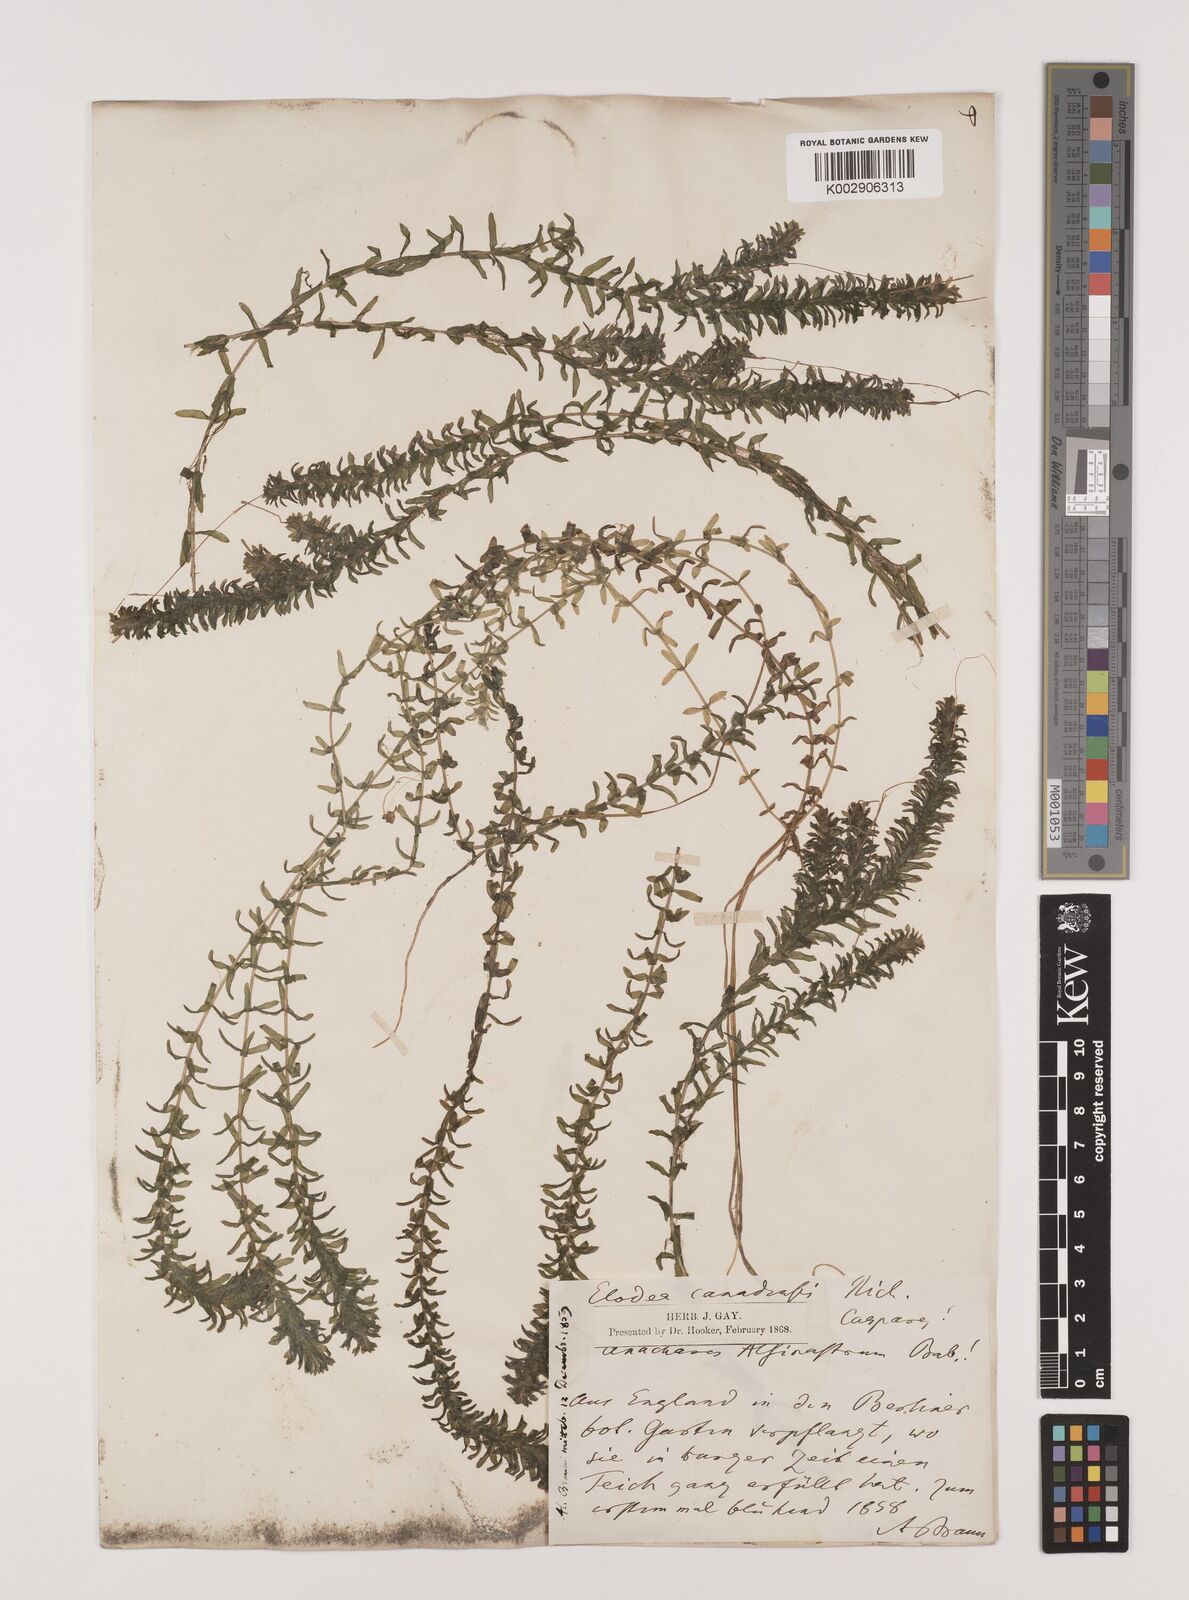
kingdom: Plantae
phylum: Tracheophyta
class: Liliopsida
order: Alismatales
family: Hydrocharitaceae
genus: Elodea
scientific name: Elodea canadensis
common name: Canadian waterweed
